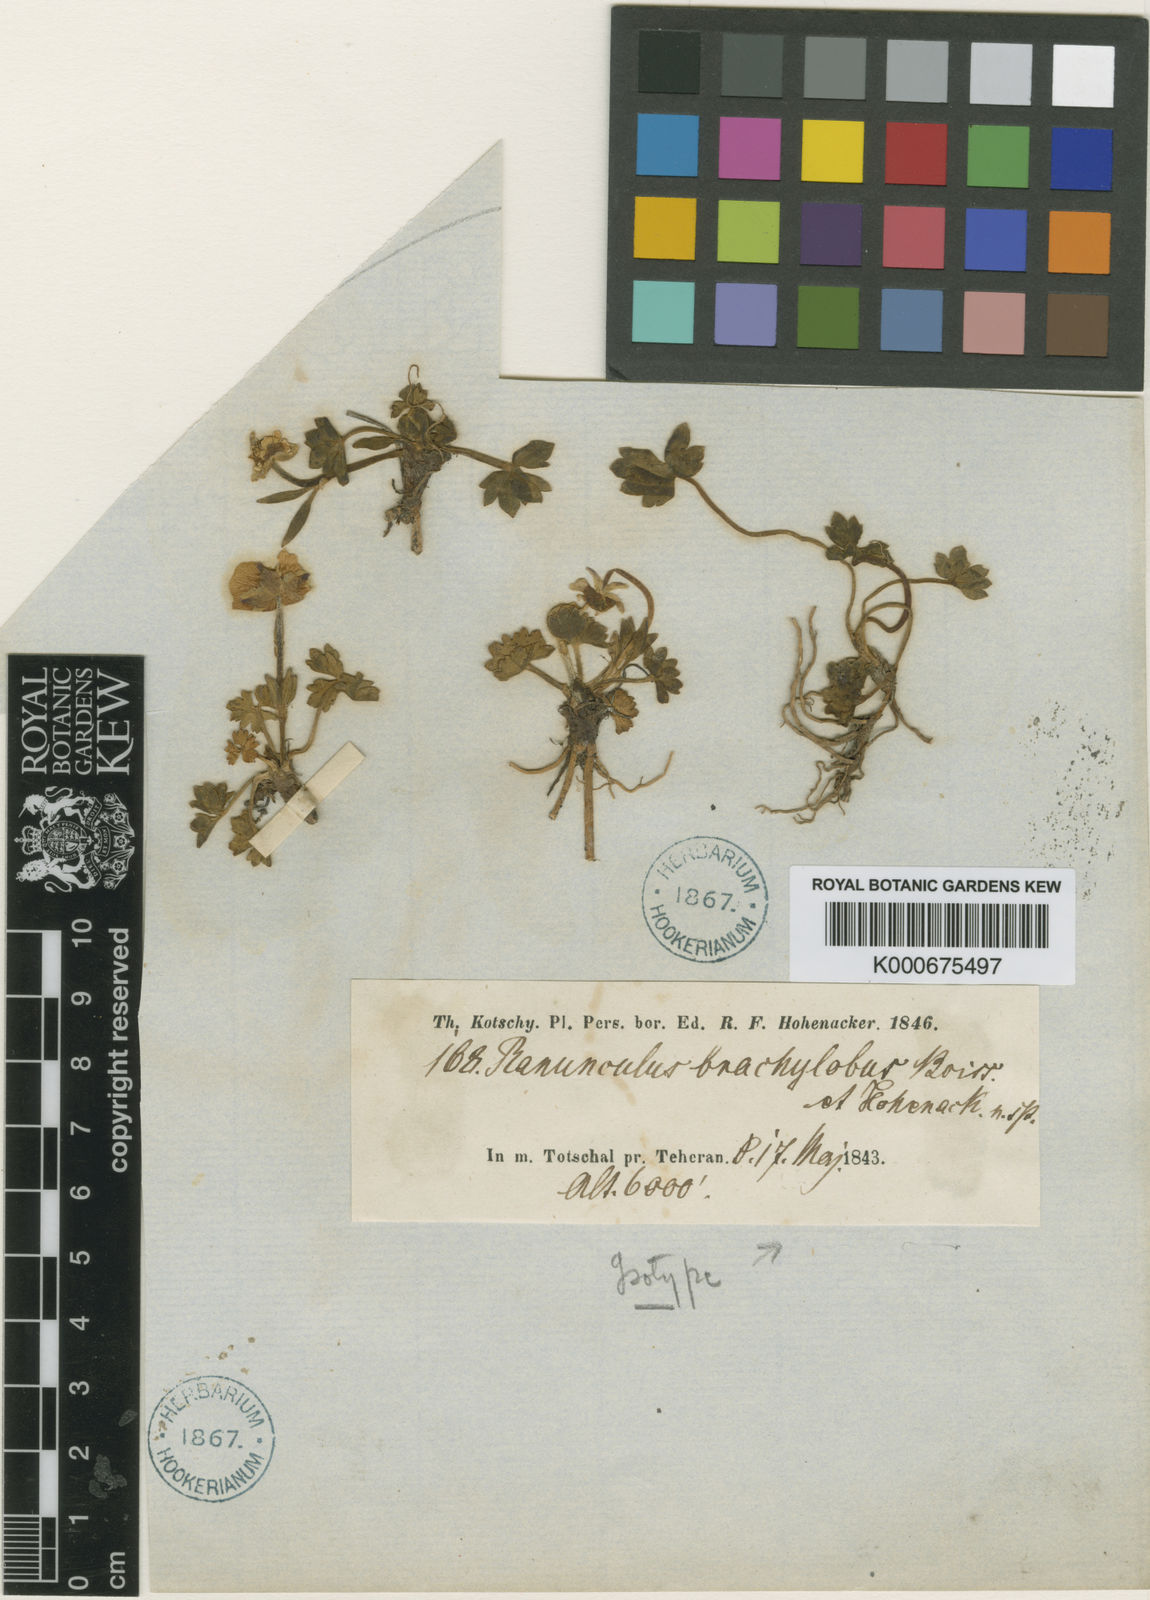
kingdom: Plantae
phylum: Tracheophyta
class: Magnoliopsida
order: Ranunculales
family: Ranunculaceae
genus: Ranunculus
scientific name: Ranunculus brachylobus
